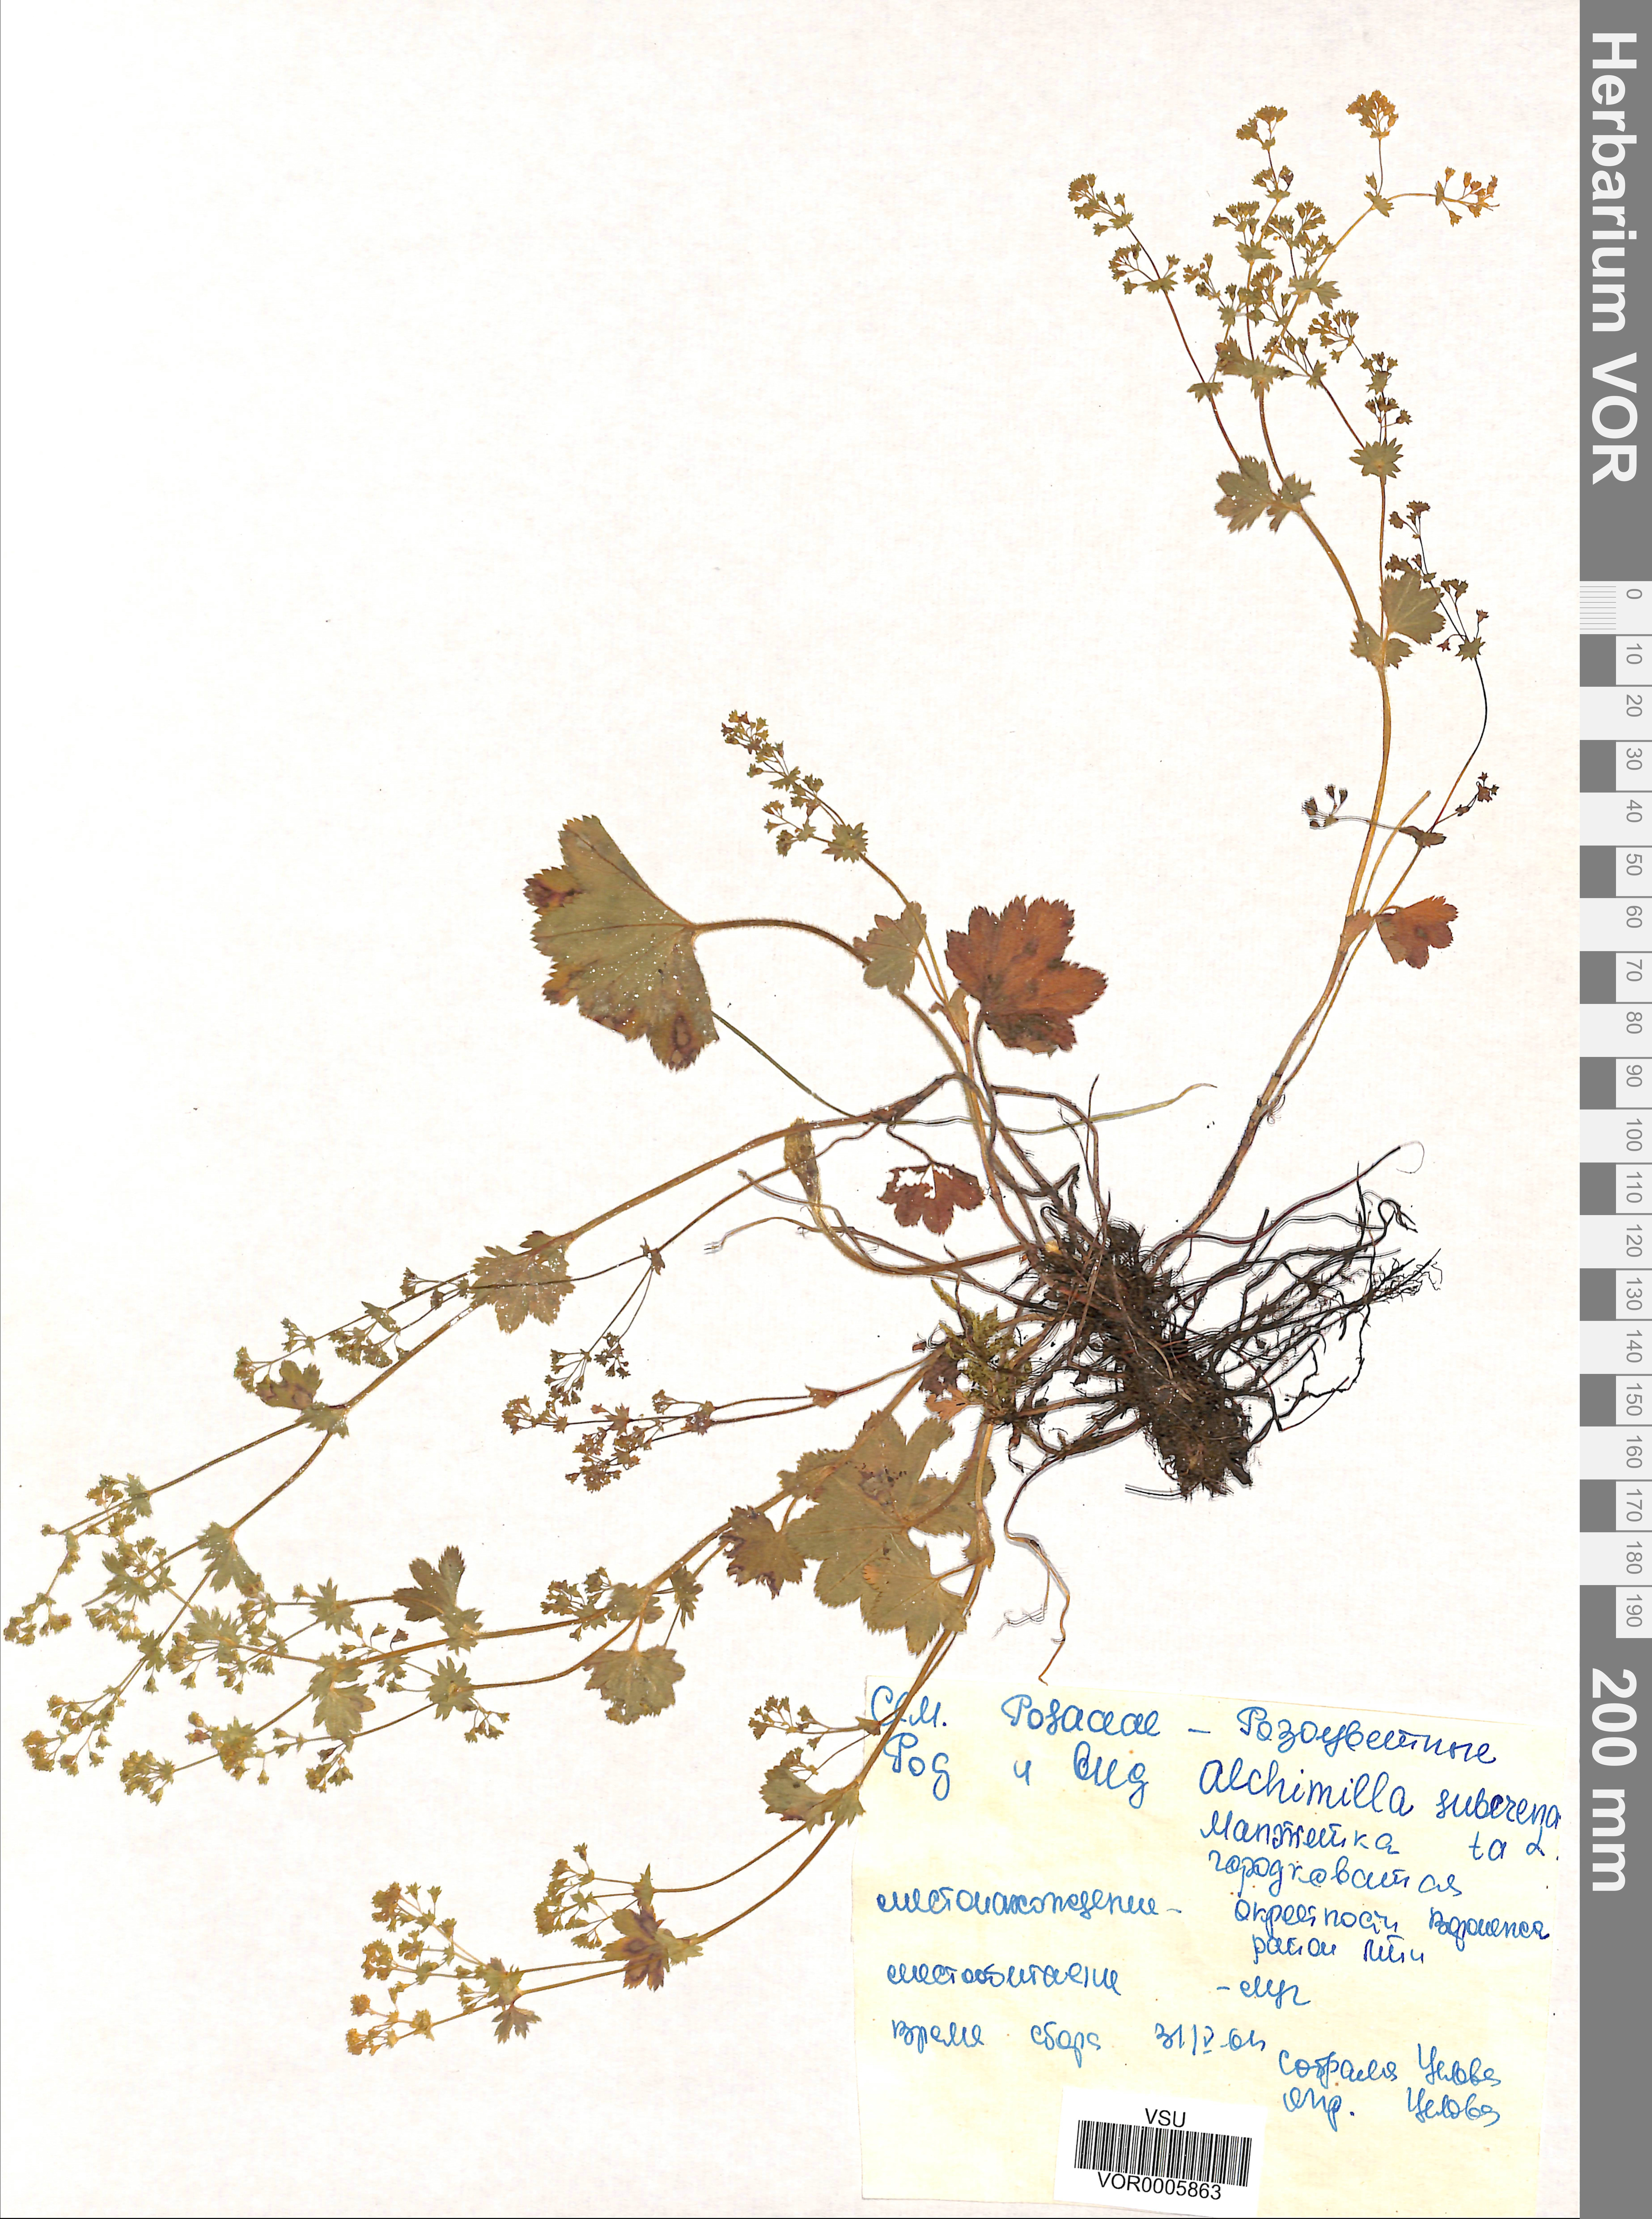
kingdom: Plantae
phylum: Tracheophyta
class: Magnoliopsida
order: Rosales
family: Rosaceae
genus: Alchemilla
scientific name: Alchemilla subcrenata
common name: Broadtooth lady's mantle
